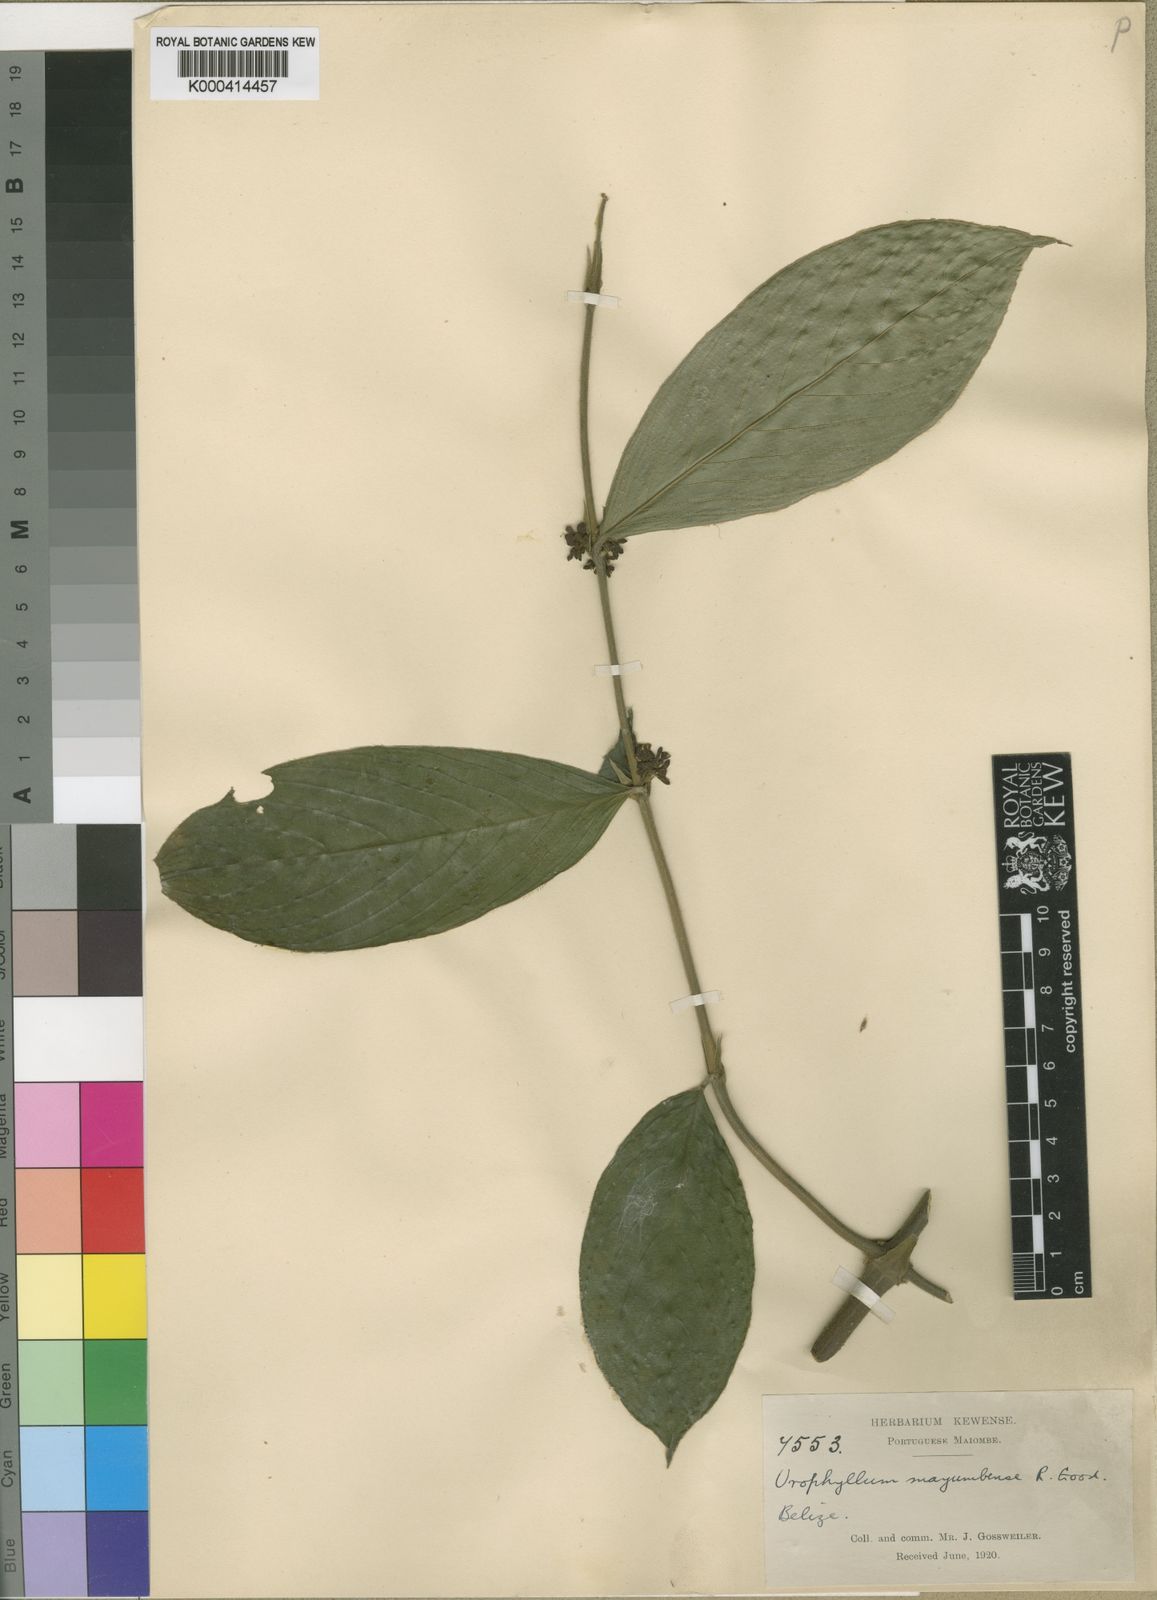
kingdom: Plantae
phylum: Tracheophyta
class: Magnoliopsida
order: Gentianales
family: Rubiaceae
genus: Pauridiantha
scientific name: Pauridiantha mayumbensis
